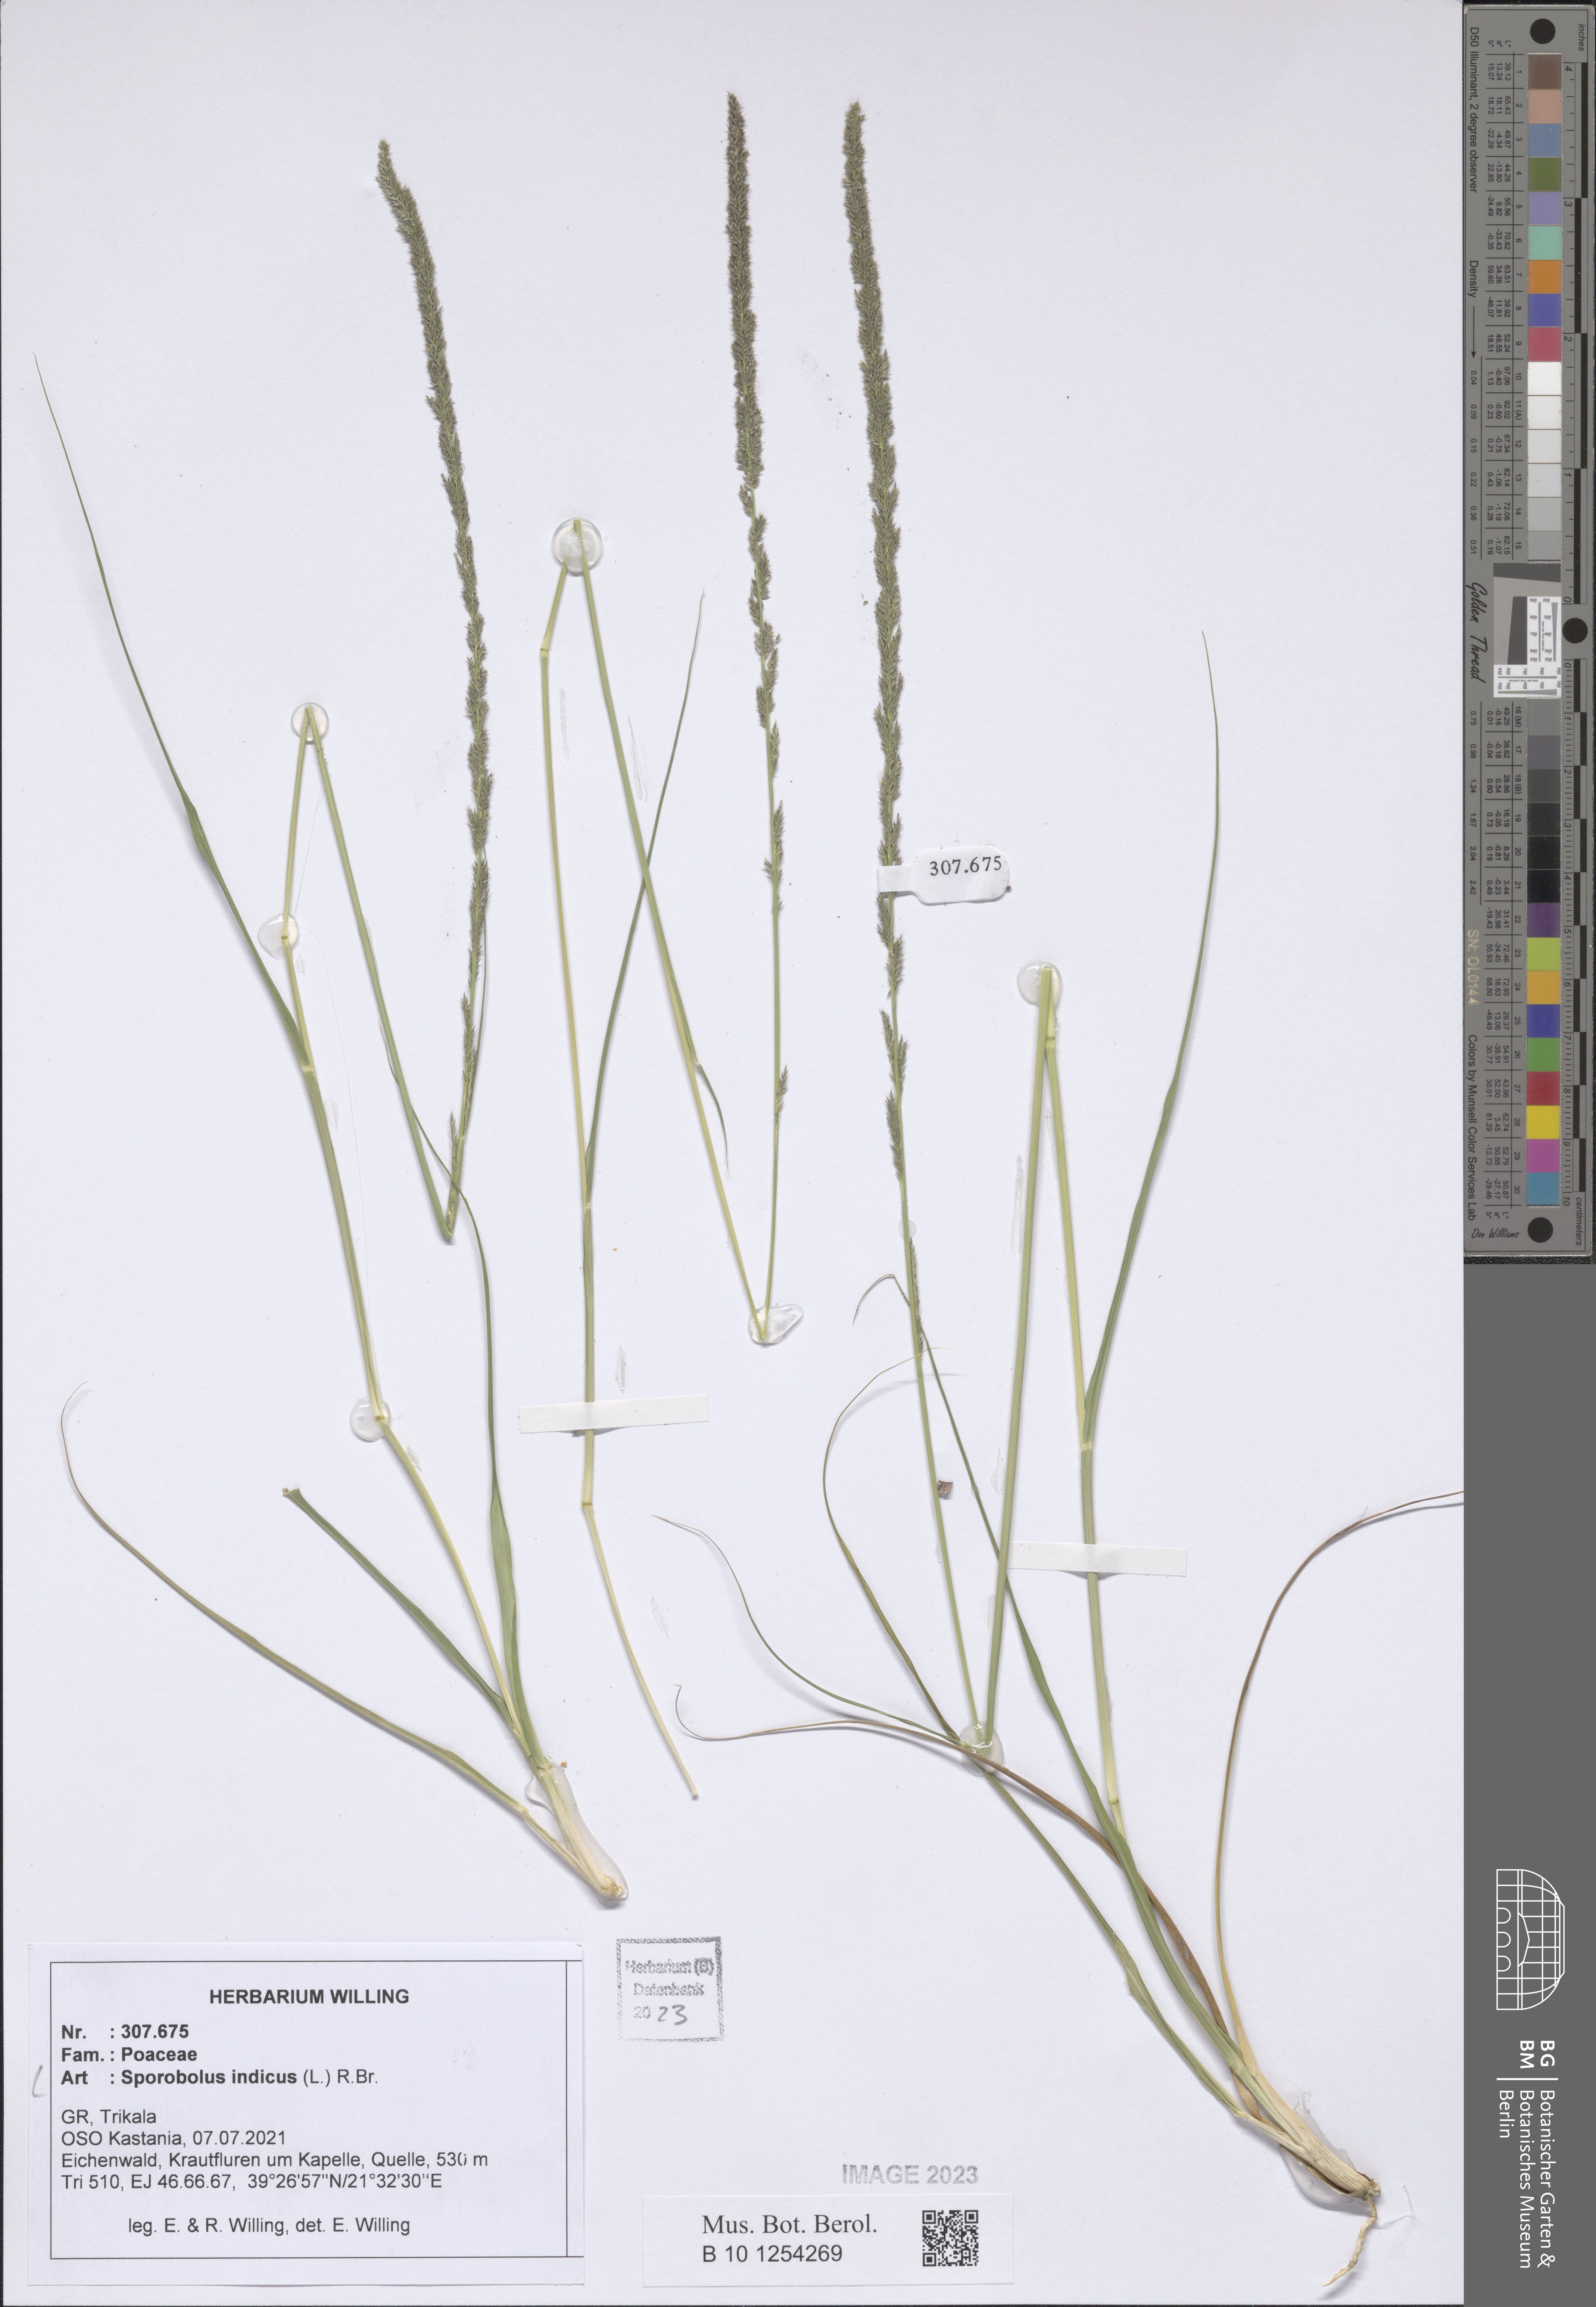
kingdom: Plantae
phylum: Tracheophyta
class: Liliopsida
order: Poales
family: Poaceae
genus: Sporobolus
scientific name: Sporobolus indicus
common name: Smut grass
